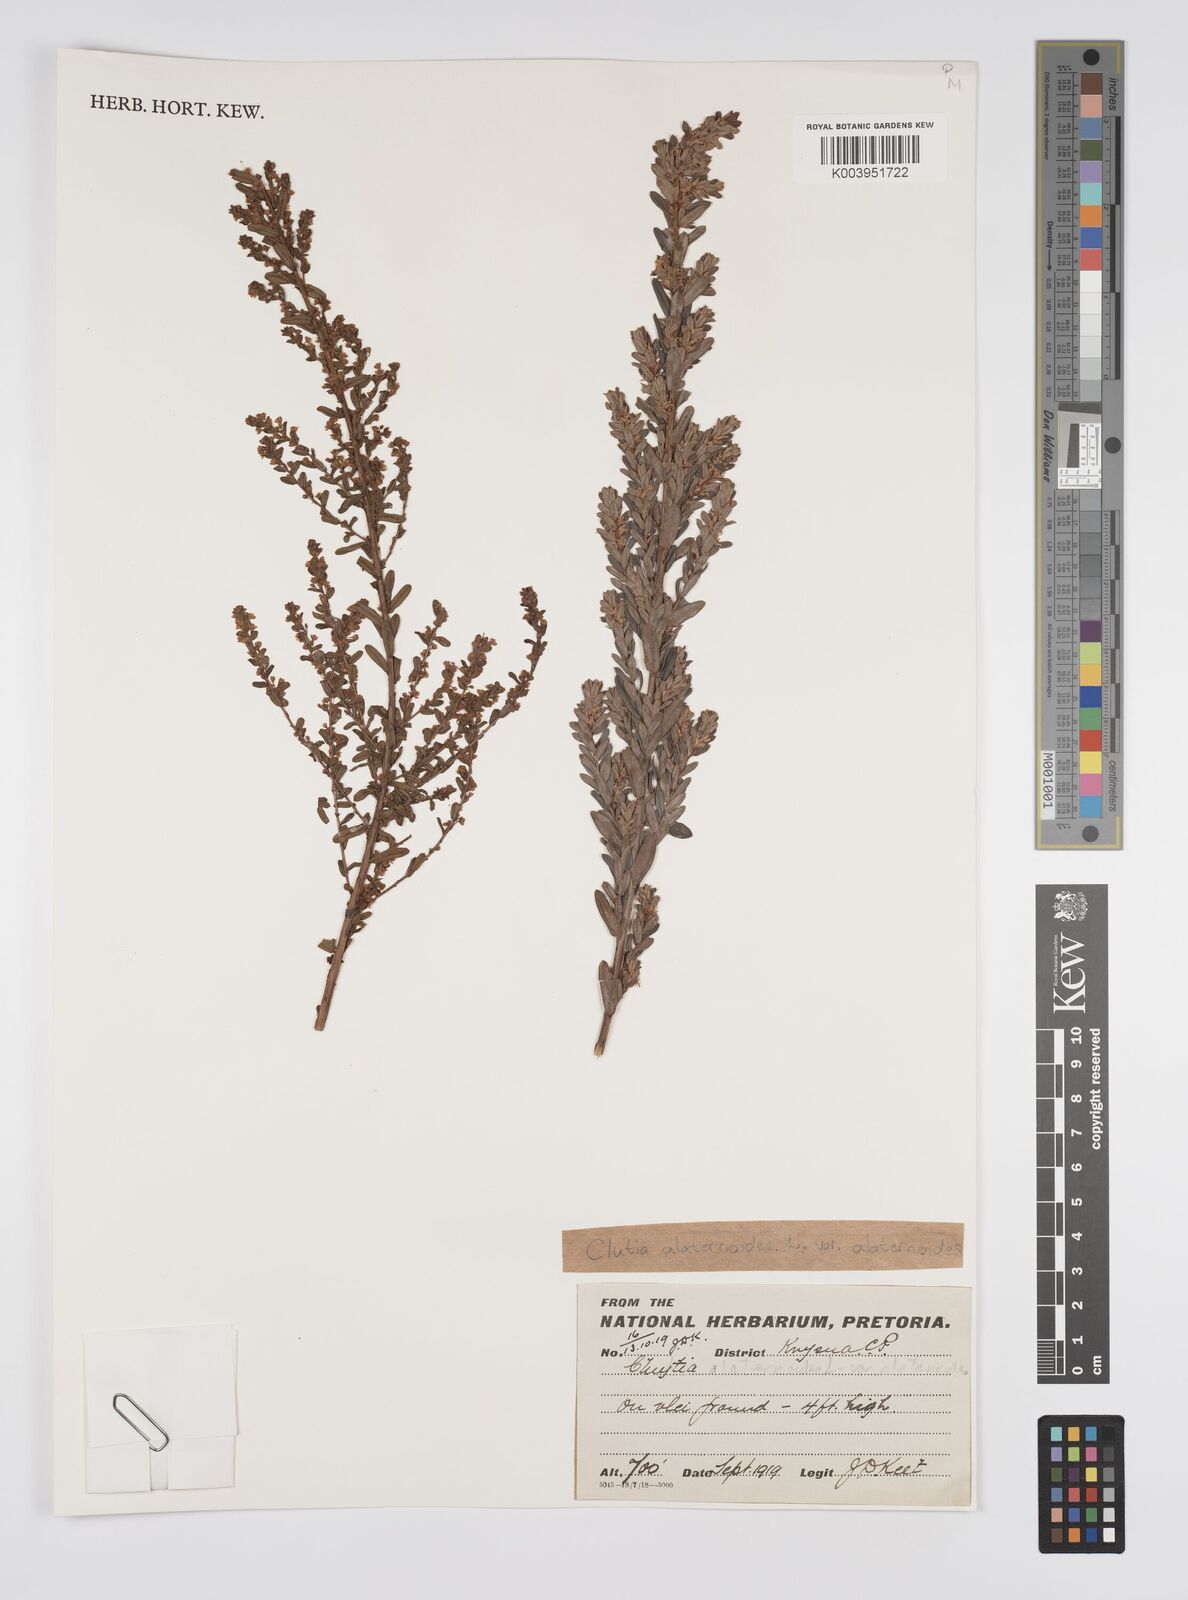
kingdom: Plantae
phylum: Tracheophyta
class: Magnoliopsida
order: Malpighiales
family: Peraceae
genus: Clutia
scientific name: Clutia alaternoides
